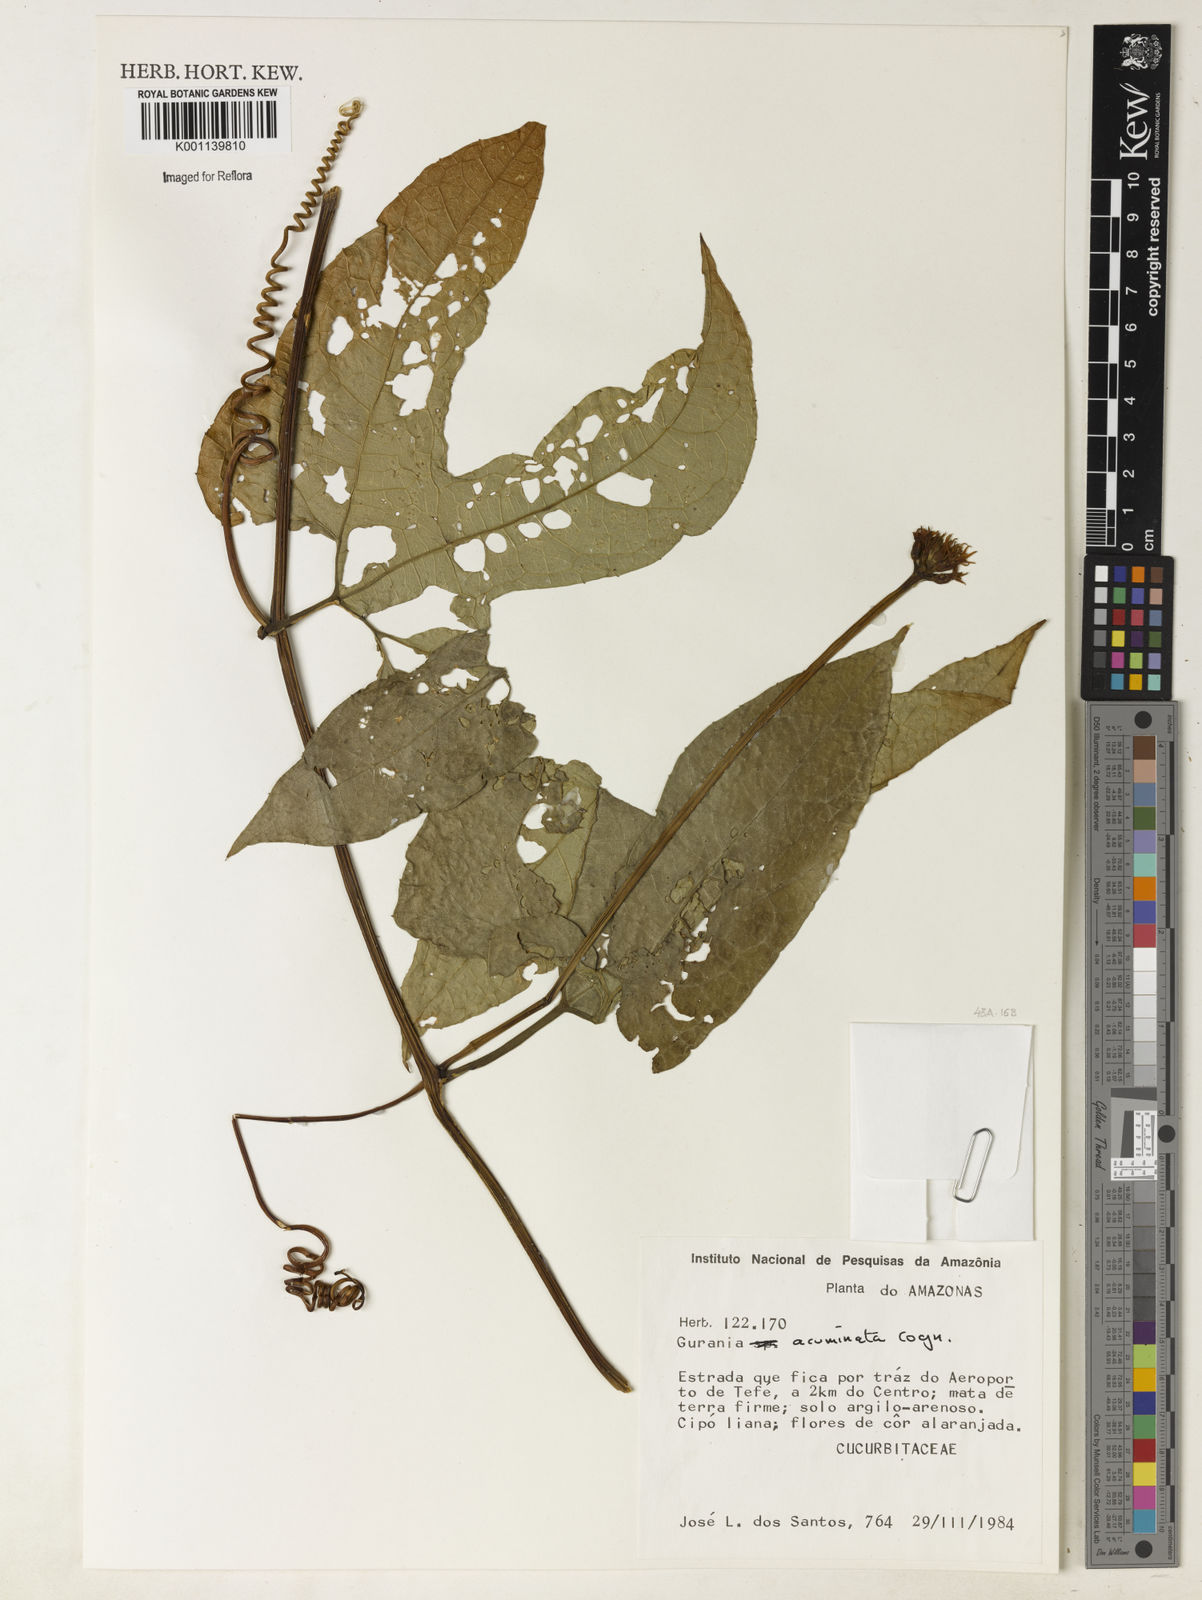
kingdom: Plantae
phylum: Tracheophyta
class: Magnoliopsida
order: Cucurbitales
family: Cucurbitaceae
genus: Gurania
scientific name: Gurania acuminata
